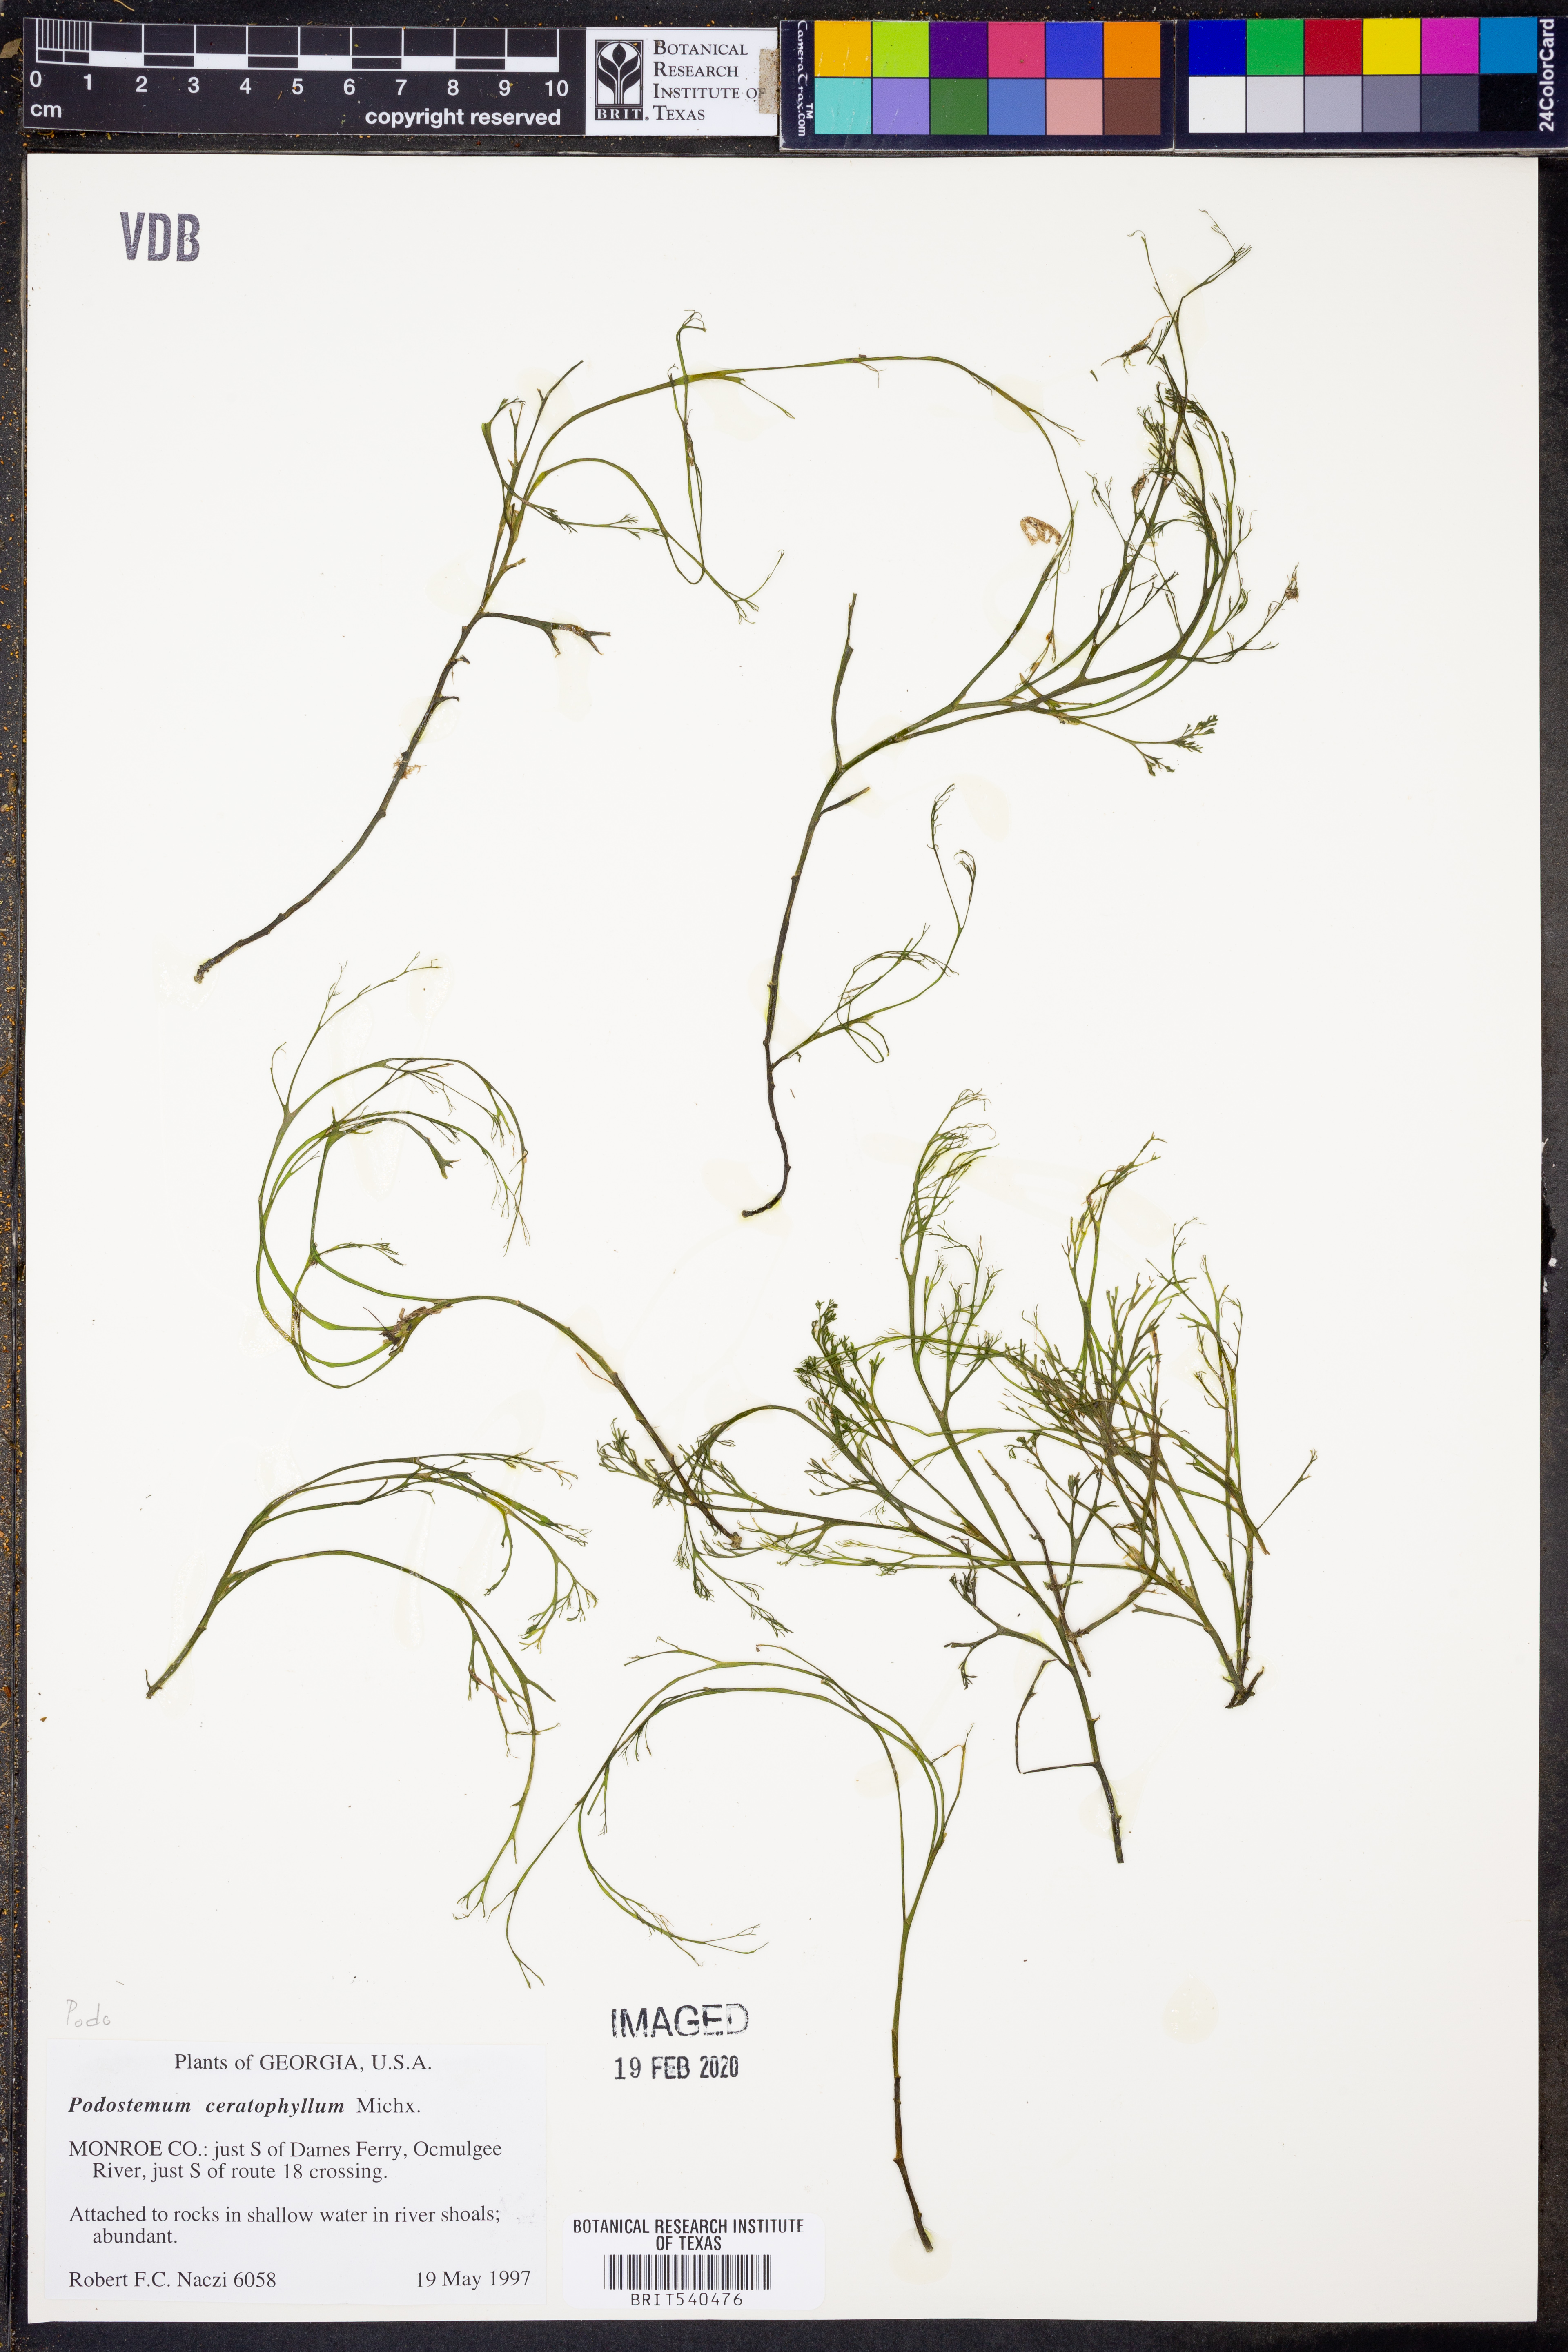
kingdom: Plantae
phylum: Tracheophyta
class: Magnoliopsida
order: Malpighiales
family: Podostemaceae
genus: Podostemum
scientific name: Podostemum ceratophyllum
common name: Horn-leaved riverweed
